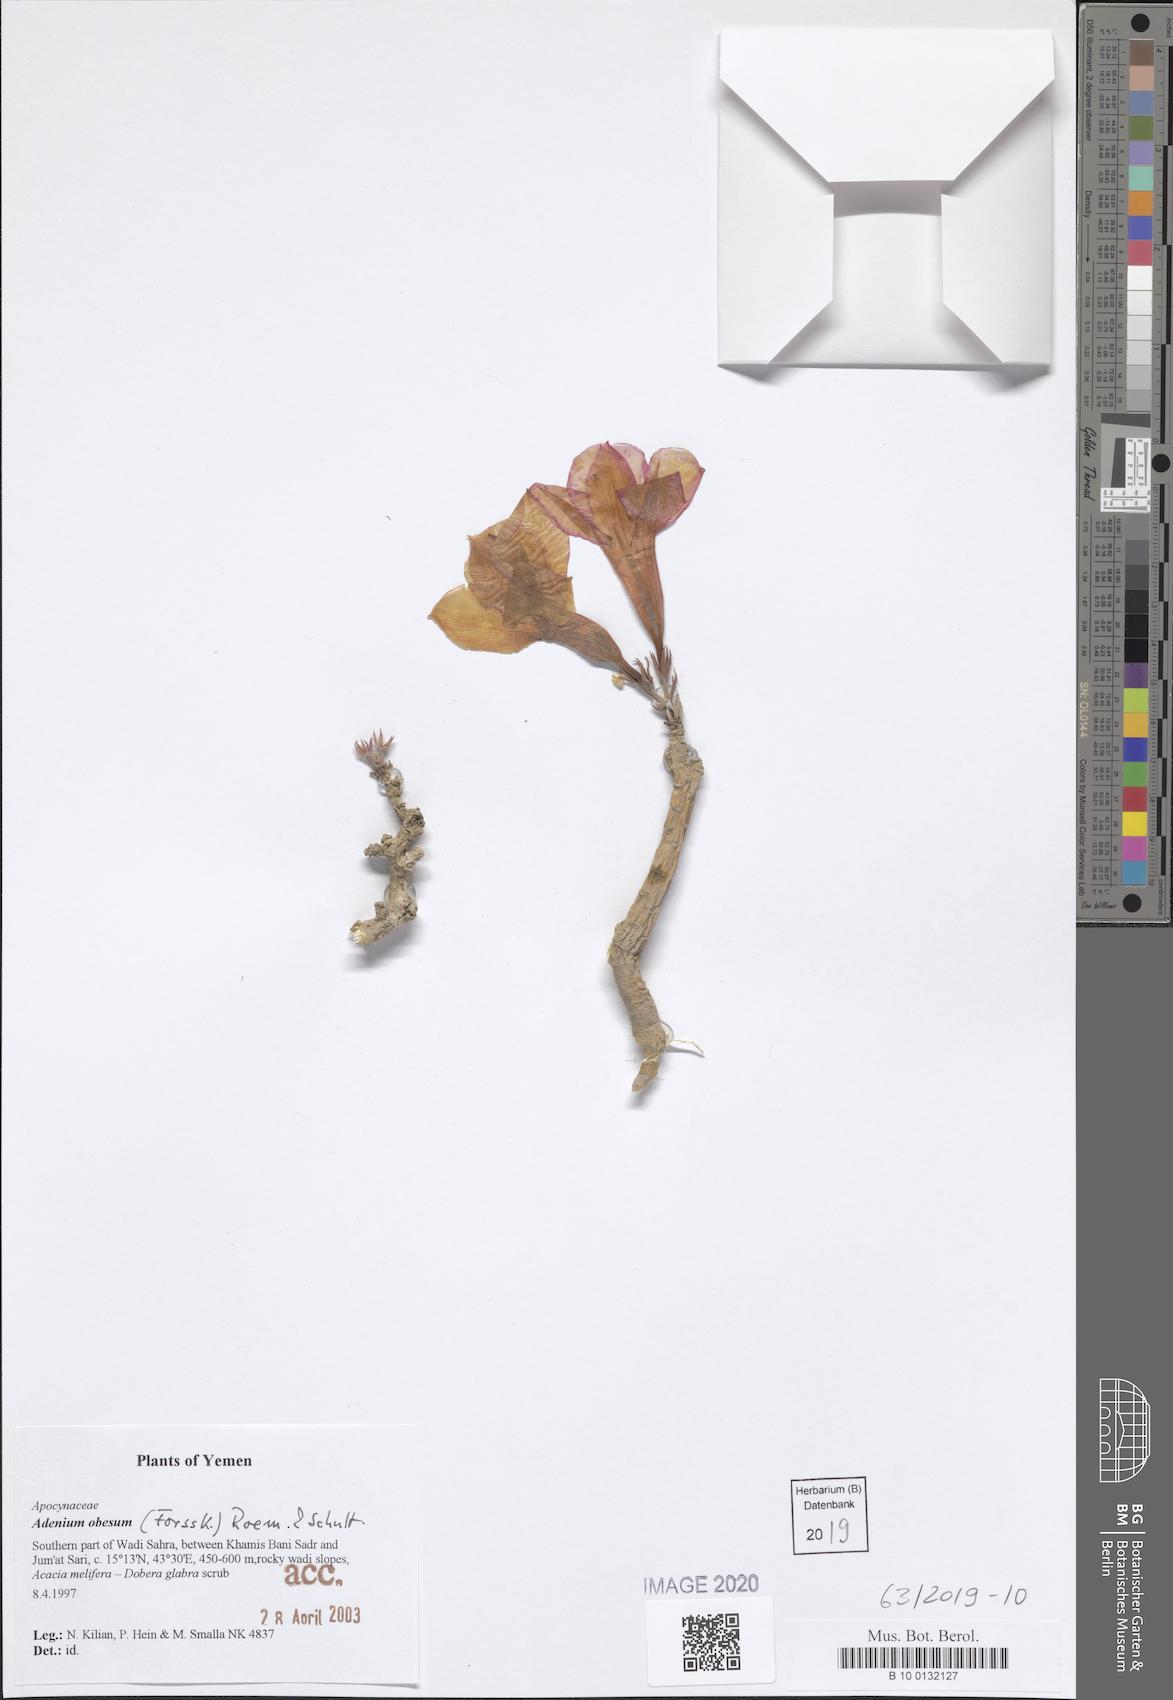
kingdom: Plantae
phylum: Tracheophyta
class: Magnoliopsida
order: Gentianales
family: Apocynaceae
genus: Adenium
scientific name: Adenium obesum
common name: Desert-rose
